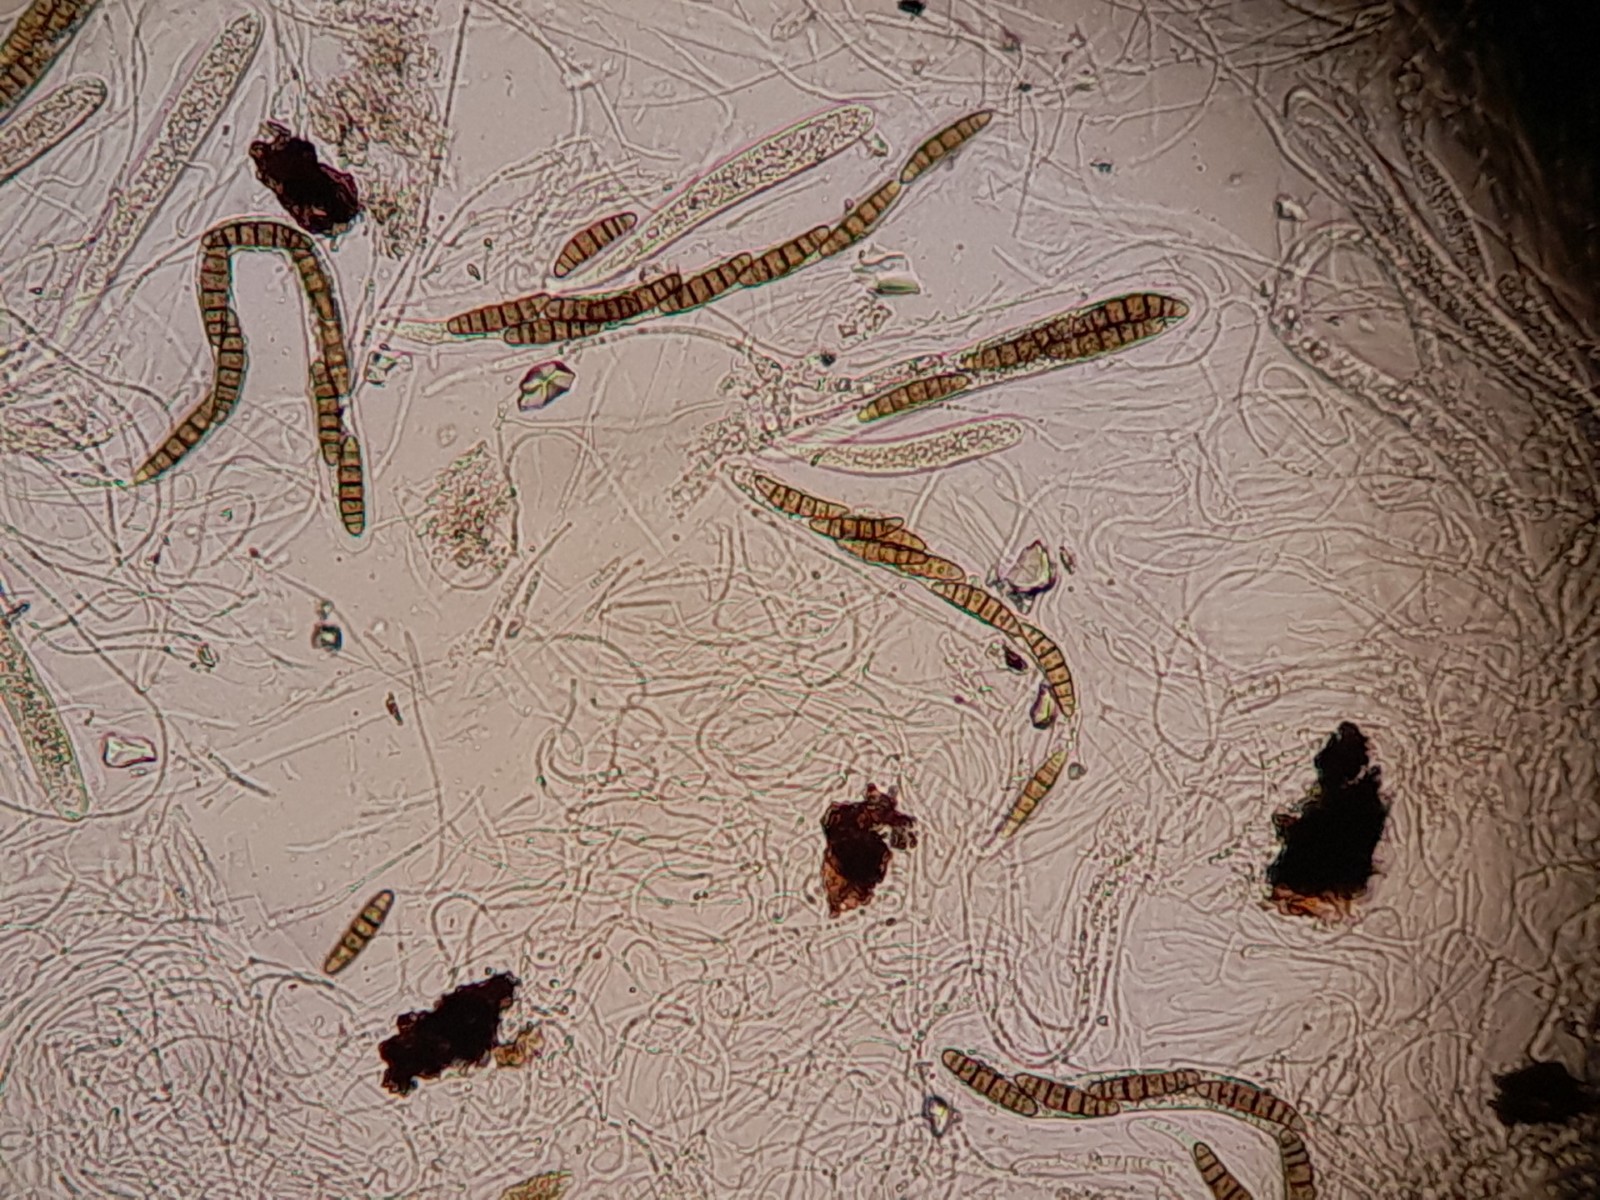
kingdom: Fungi
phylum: Ascomycota
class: Dothideomycetes
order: Pleosporales
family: Thyridariaceae
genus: Thyridaria
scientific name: Thyridaria macrostomoides
